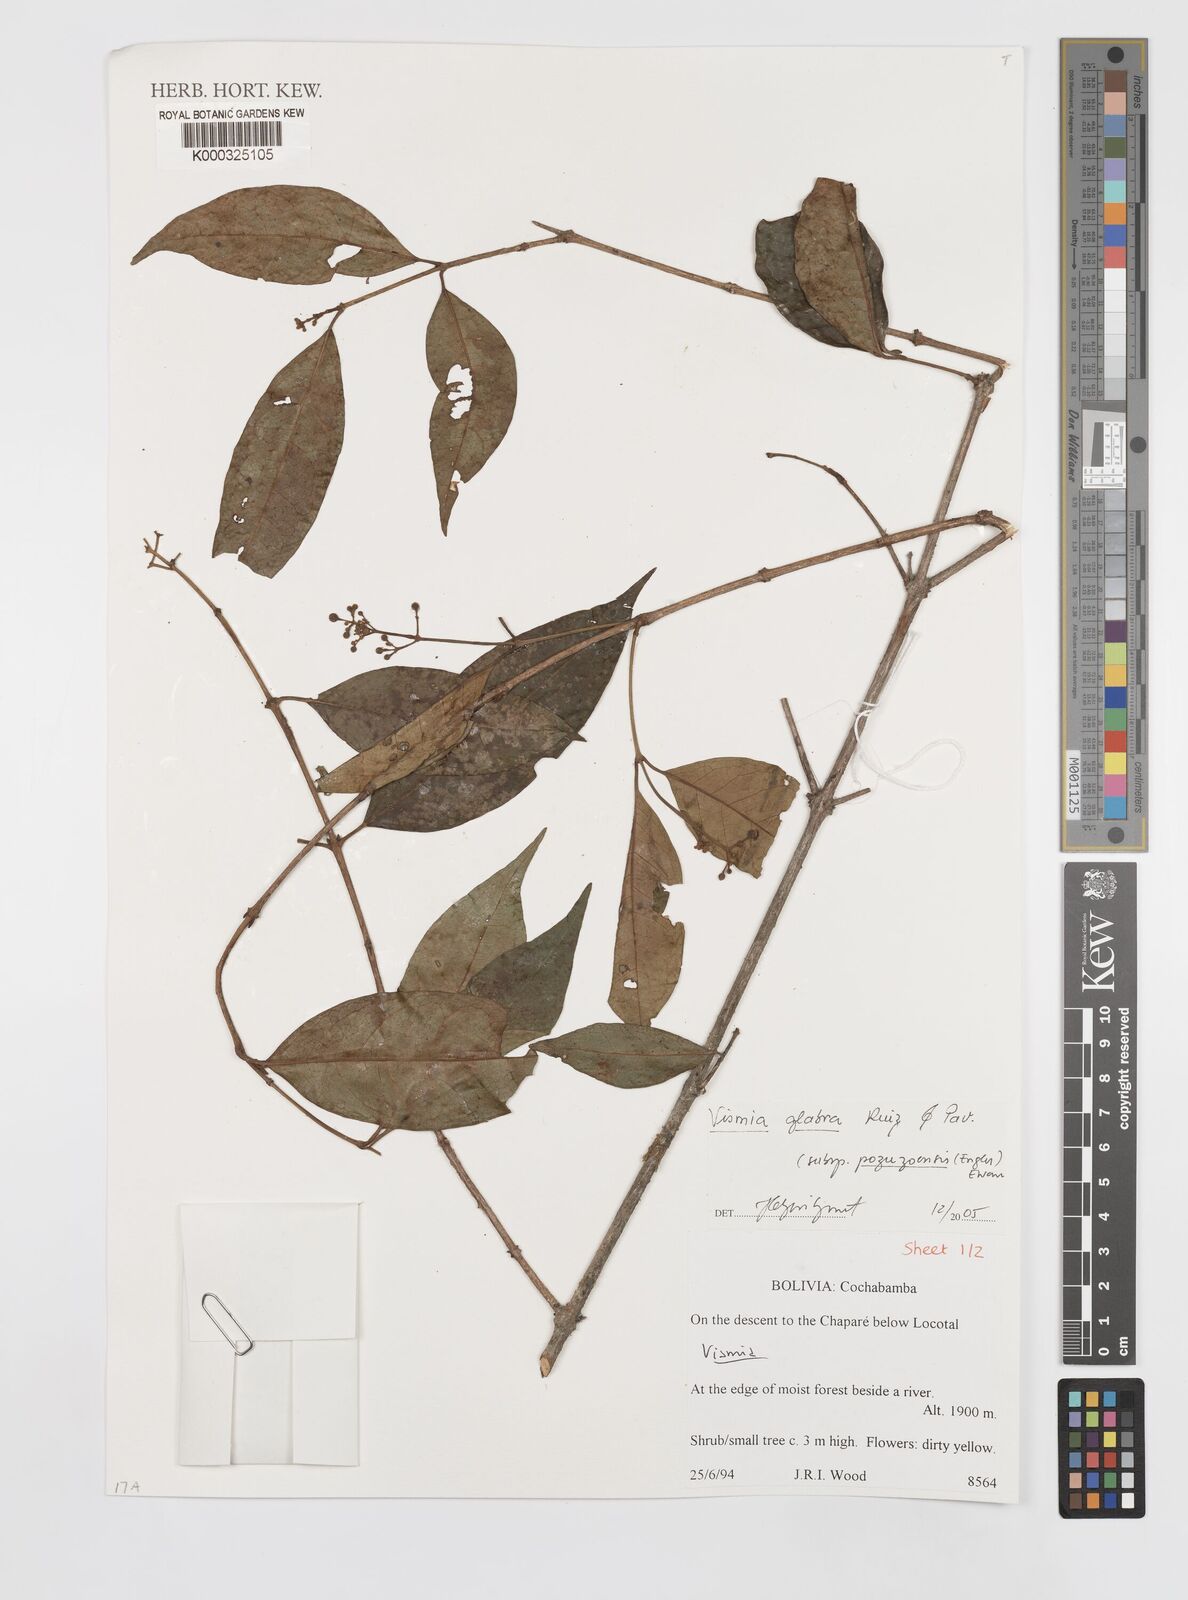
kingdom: Plantae
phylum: Tracheophyta
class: Magnoliopsida
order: Malpighiales
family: Hypericaceae
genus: Vismia
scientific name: Vismia pozuzoensis
